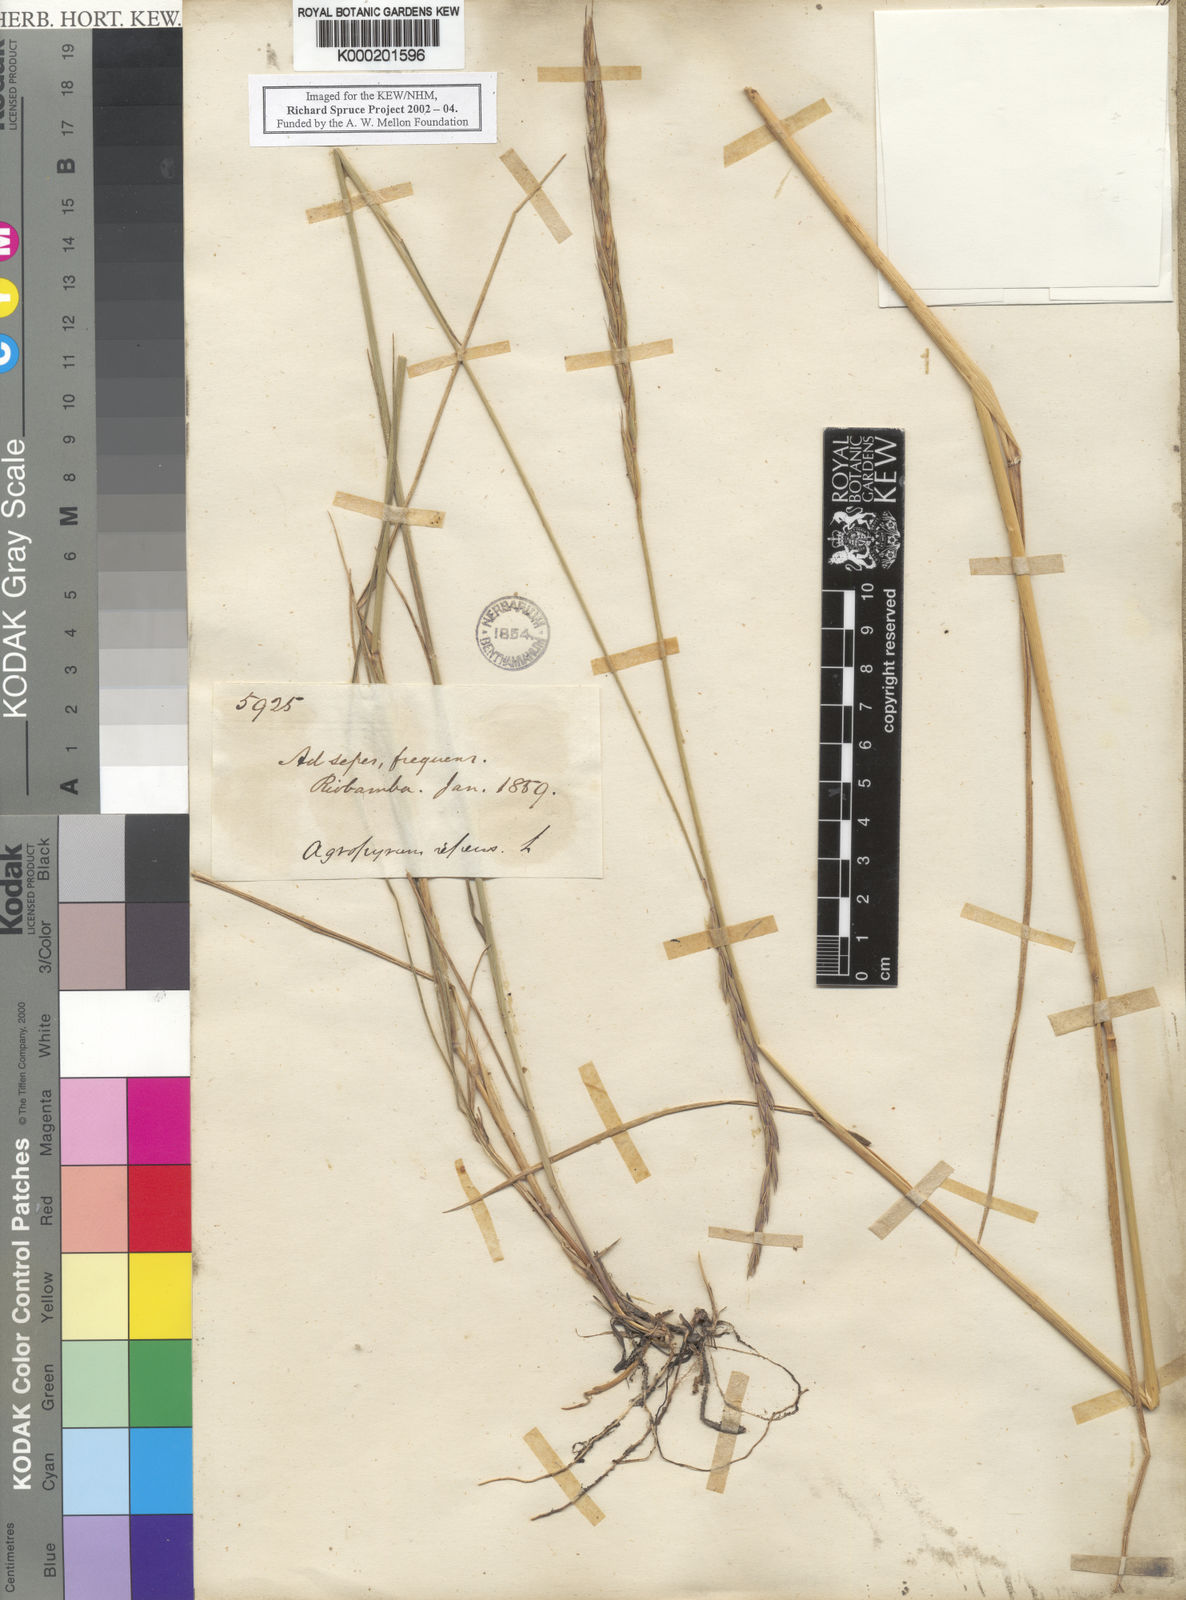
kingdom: Plantae
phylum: Tracheophyta
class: Liliopsida
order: Poales
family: Poaceae
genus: Elymus
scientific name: Elymus cordilleranus
